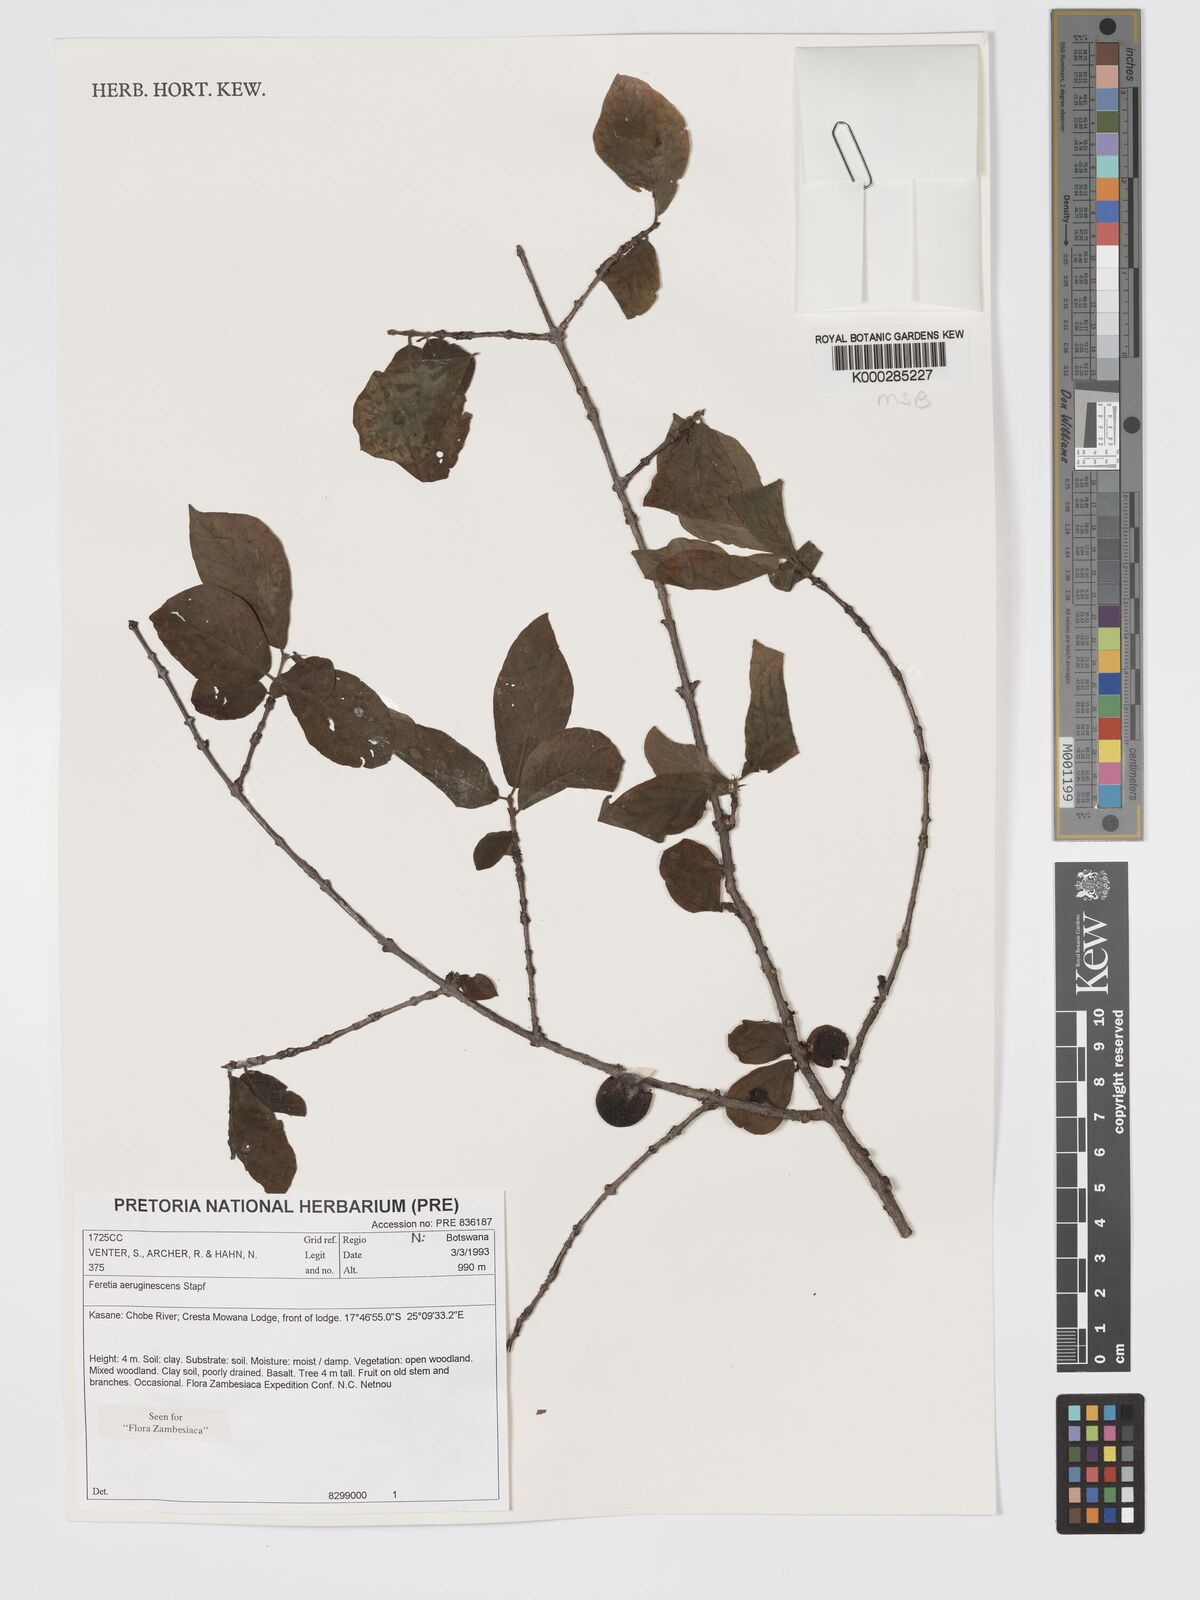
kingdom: Plantae
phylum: Tracheophyta
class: Magnoliopsida
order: Gentianales
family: Rubiaceae
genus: Feretia
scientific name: Feretia aeruginescens
